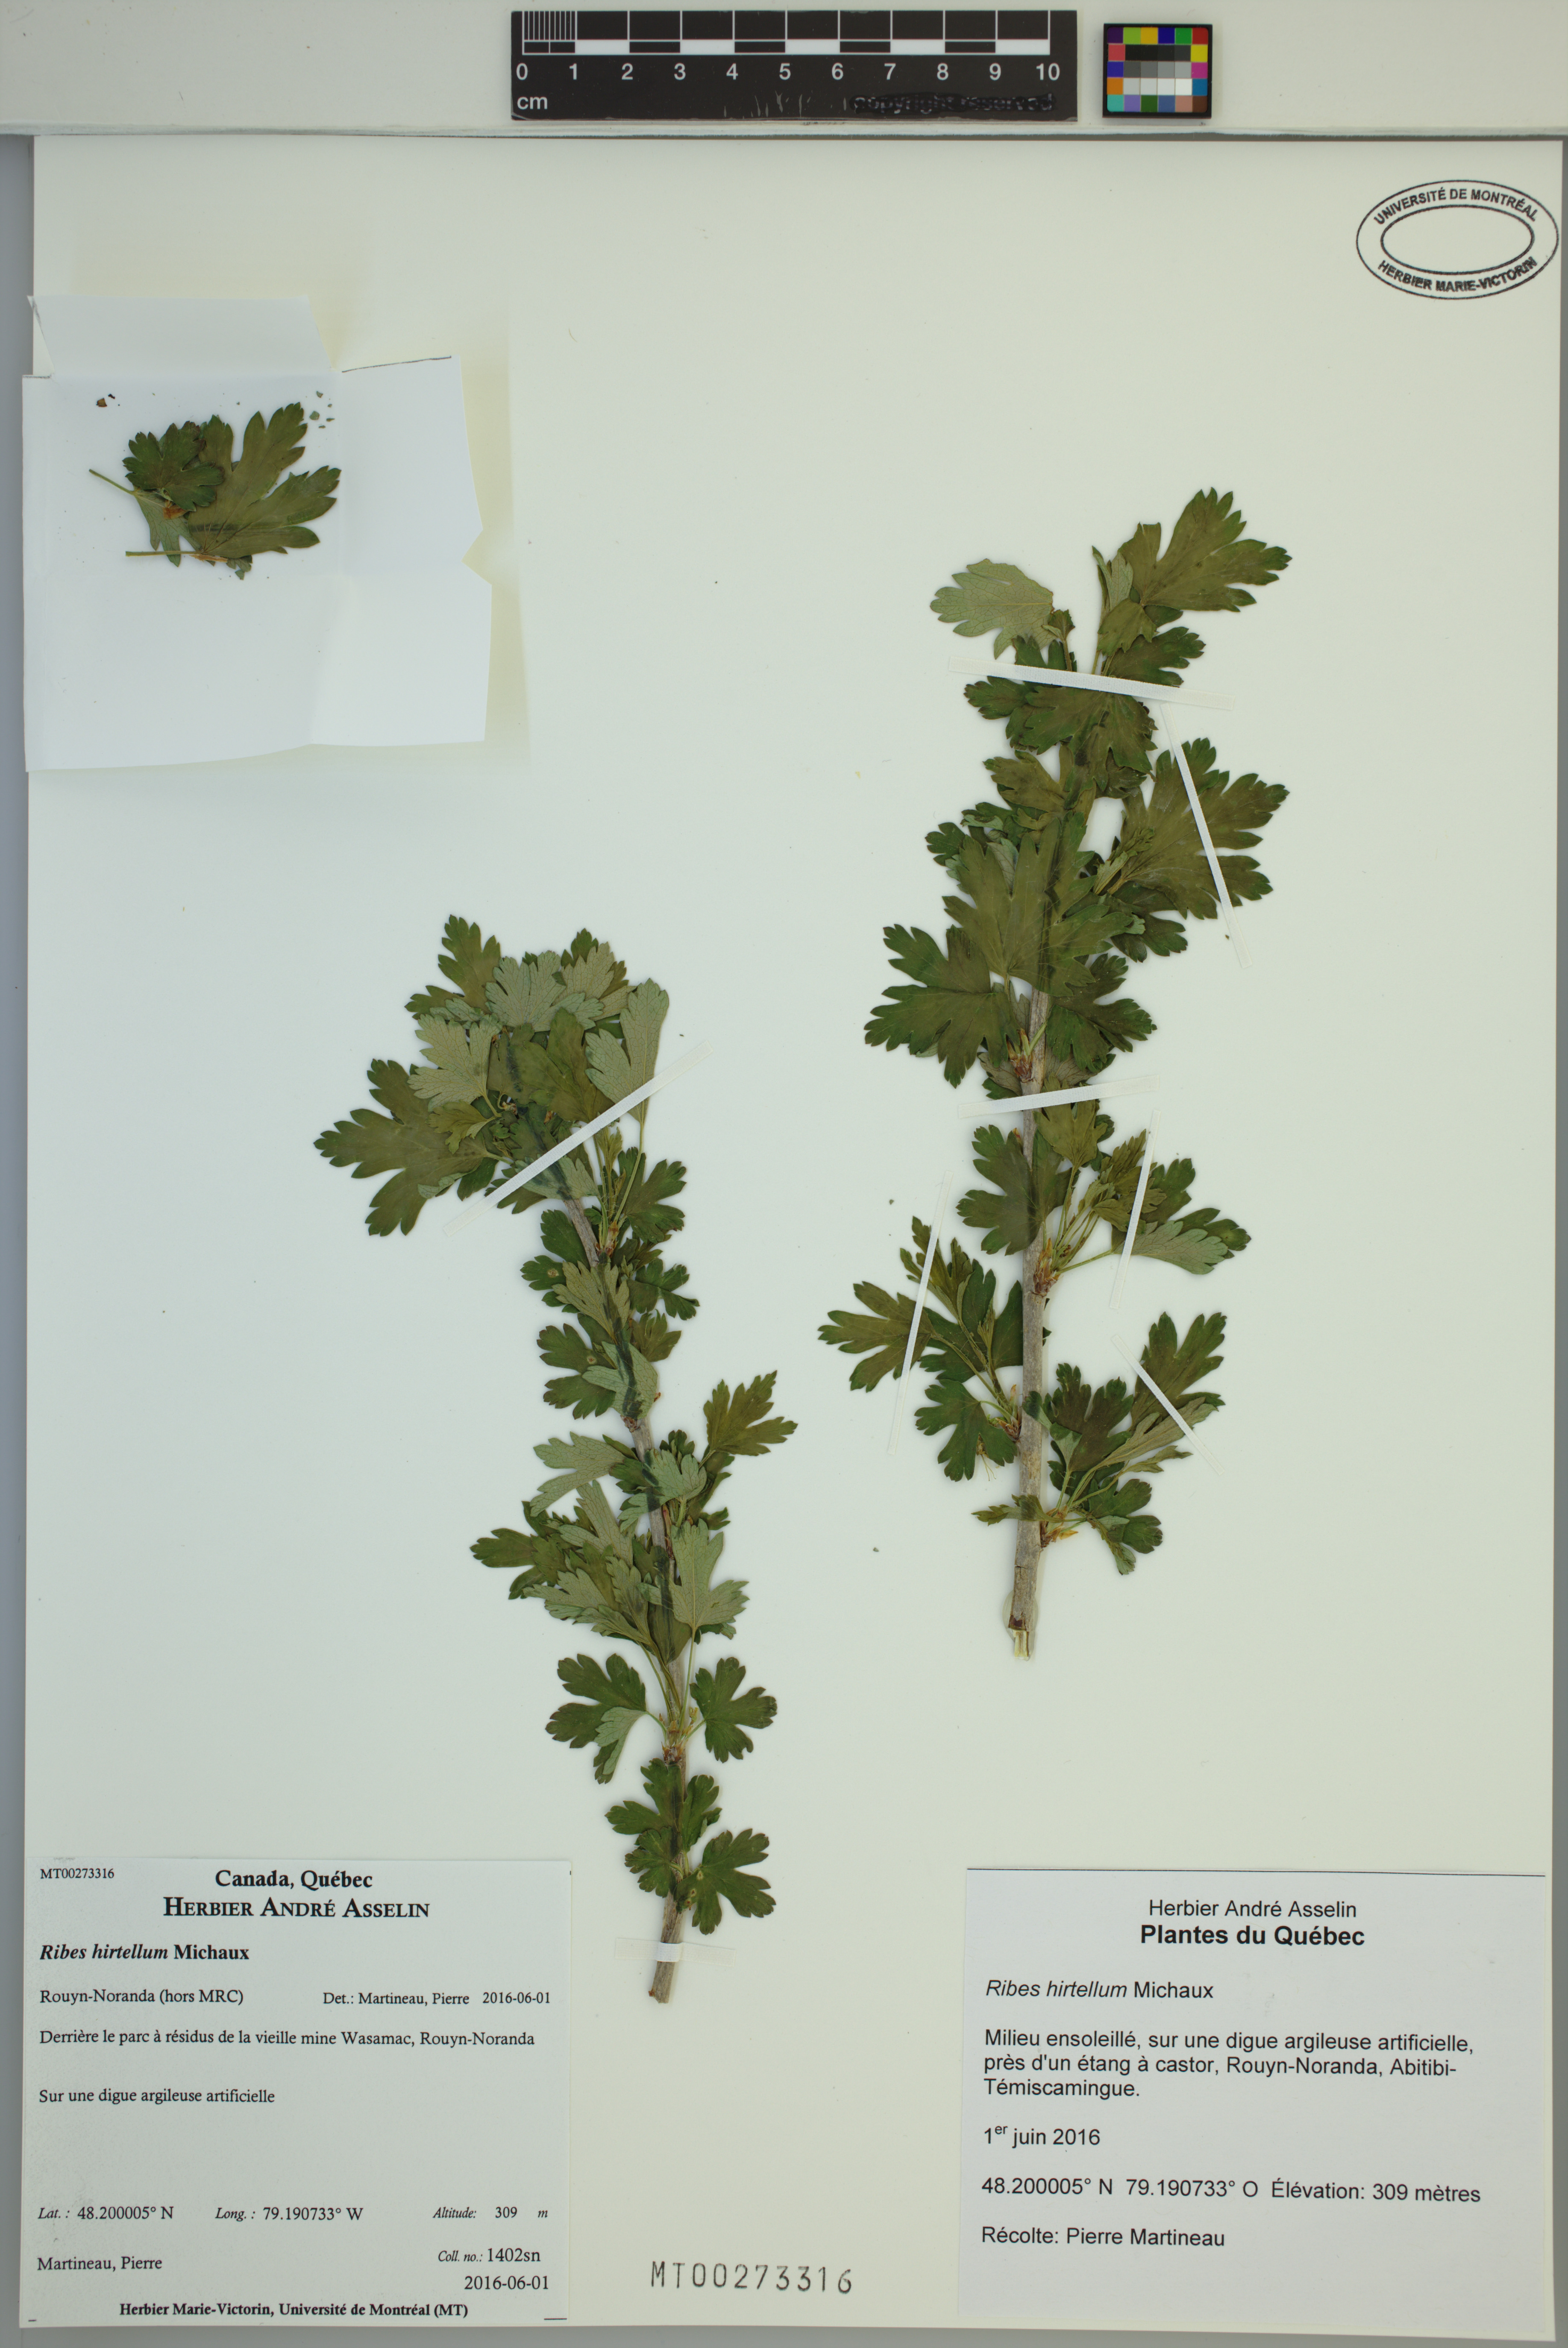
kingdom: Plantae
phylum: Tracheophyta
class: Magnoliopsida
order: Saxifragales
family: Grossulariaceae
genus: Ribes
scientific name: Ribes hirtellum
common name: Hairy gooseberry
